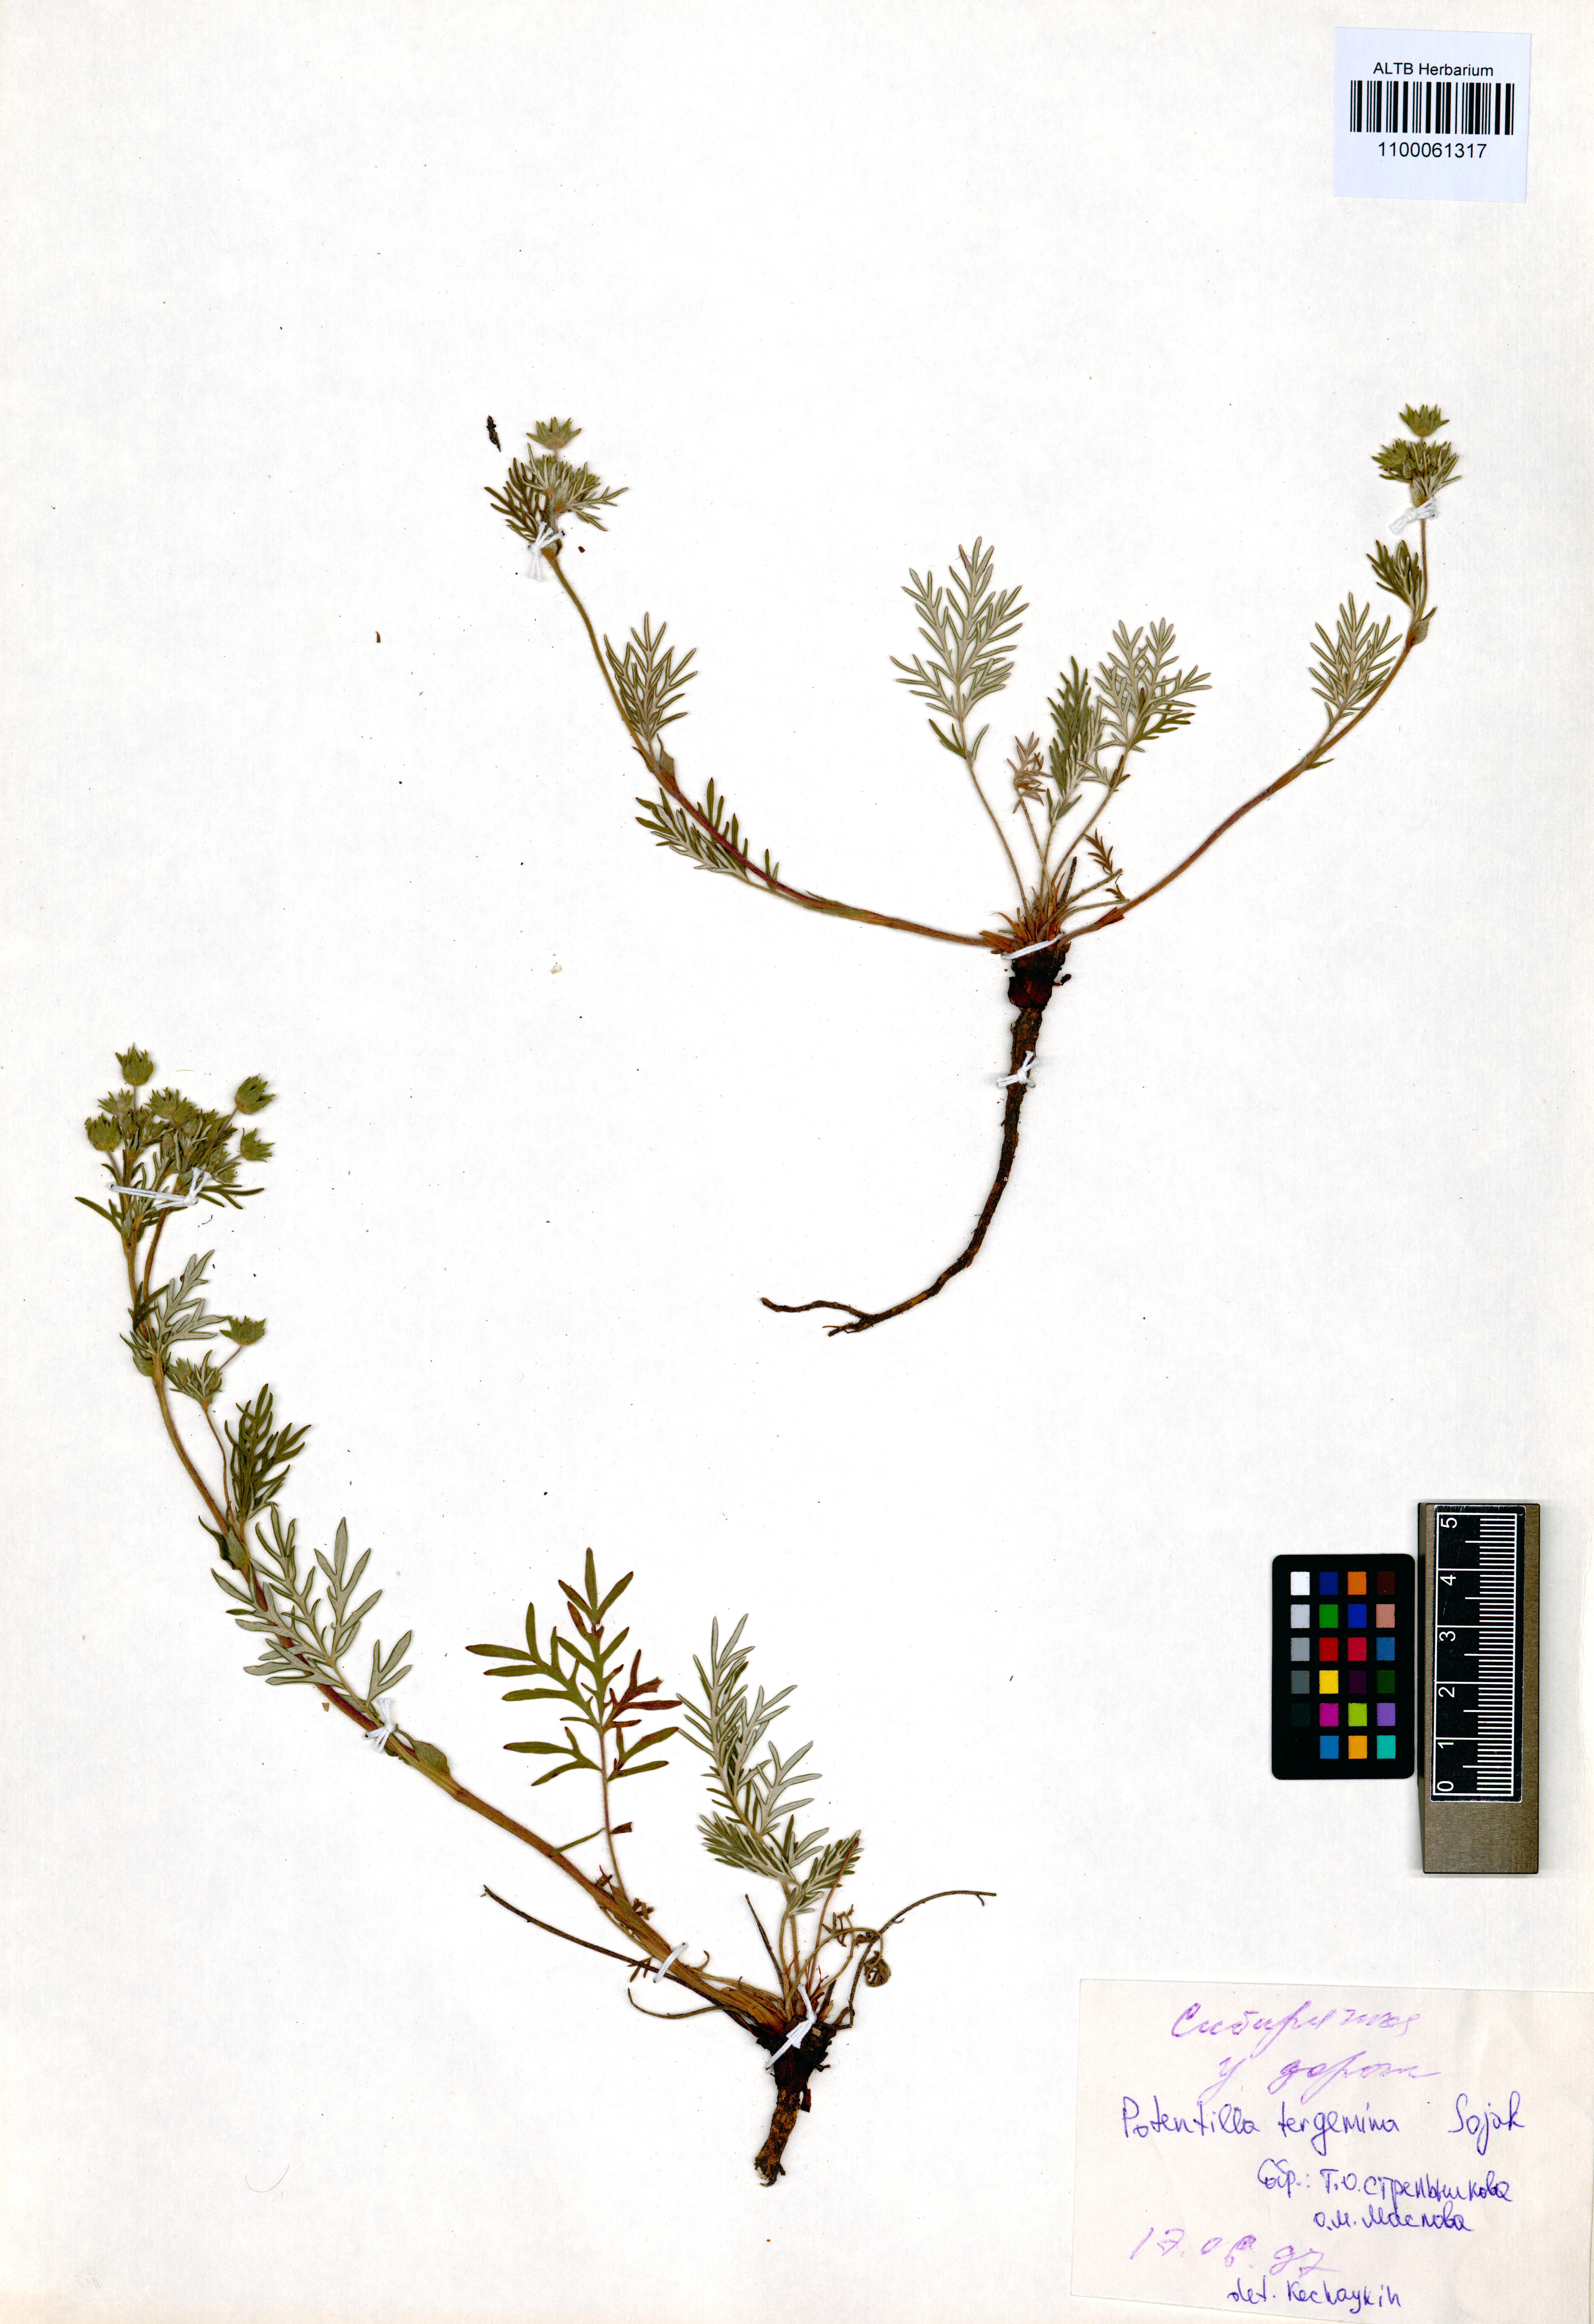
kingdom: Plantae
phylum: Tracheophyta
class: Magnoliopsida
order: Rosales
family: Rosaceae
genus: Potentilla
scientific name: Potentilla tergemina
